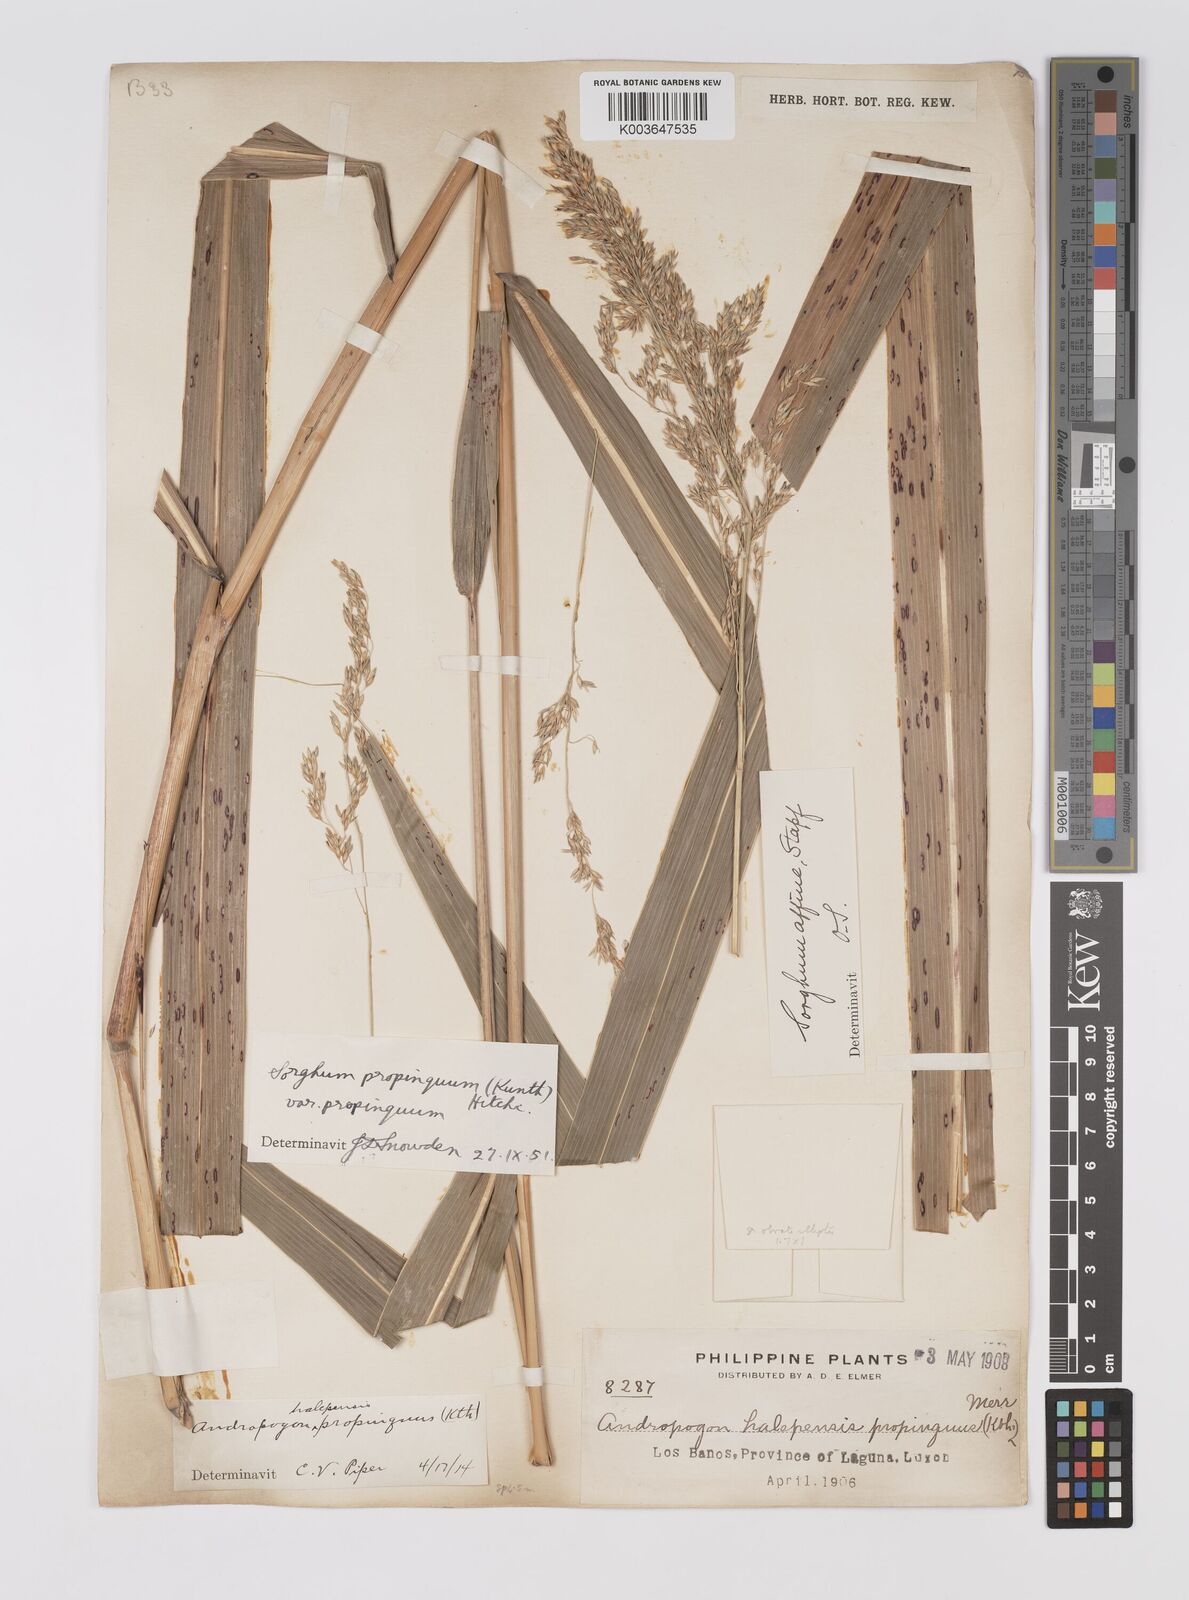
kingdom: Plantae
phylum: Tracheophyta
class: Liliopsida
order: Poales
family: Poaceae
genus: Sorghum
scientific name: Sorghum propinquum
